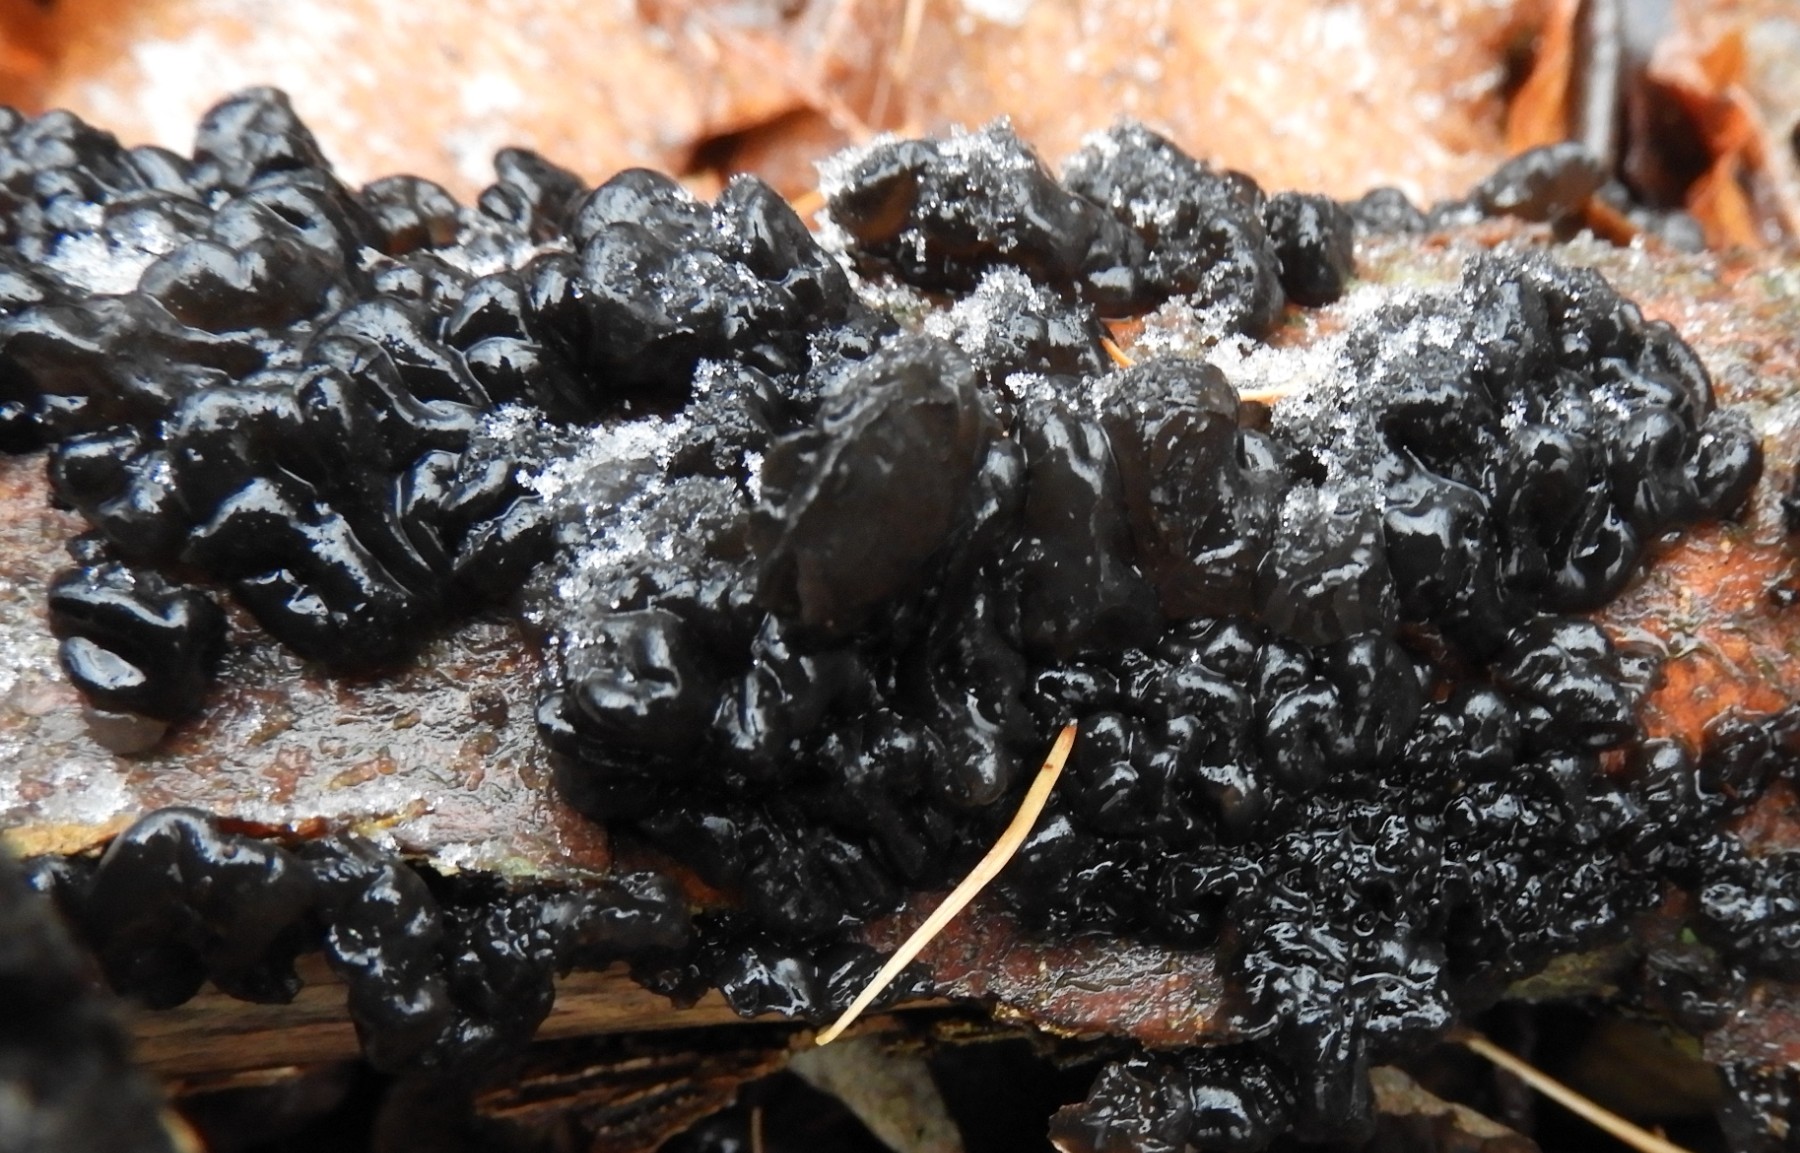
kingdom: Fungi
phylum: Basidiomycota
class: Agaricomycetes
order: Auriculariales
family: Auriculariaceae
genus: Exidia
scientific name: Exidia nigricans
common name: almindelig bævretop
